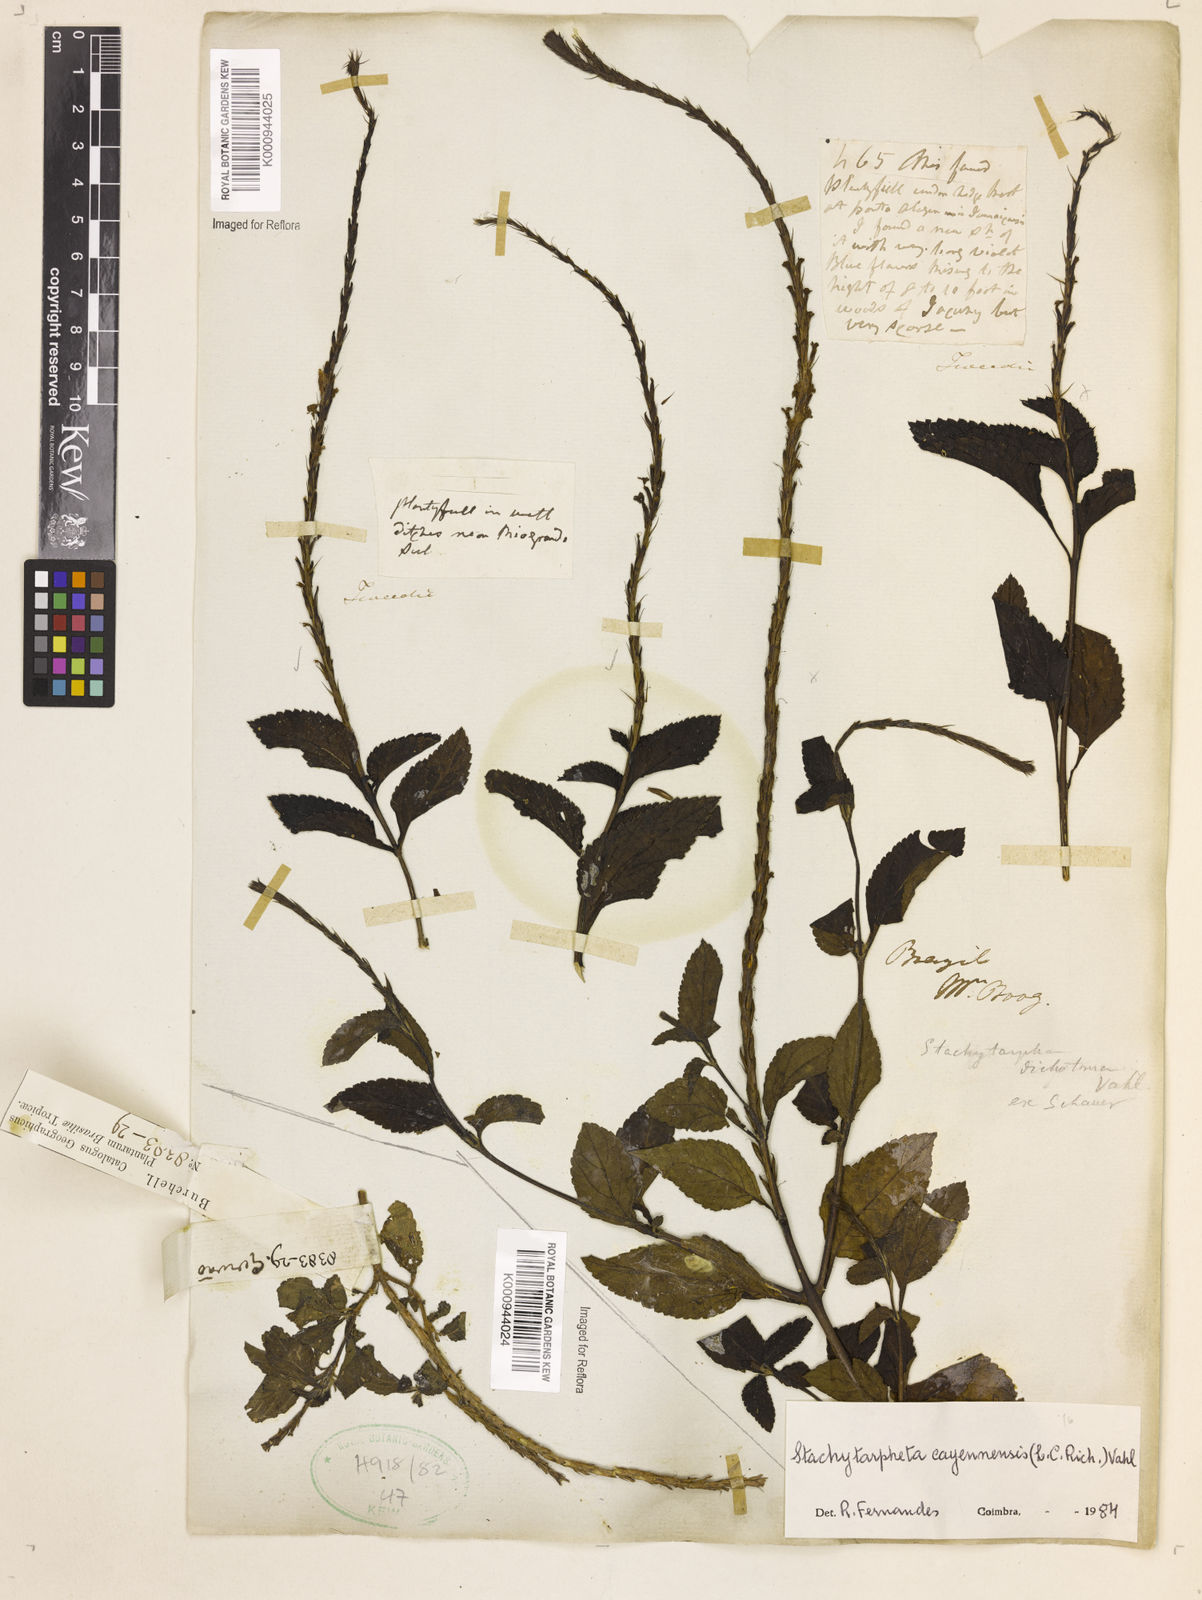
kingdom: Plantae
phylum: Tracheophyta
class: Magnoliopsida
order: Lamiales
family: Verbenaceae
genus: Aloysia
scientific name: Aloysia
